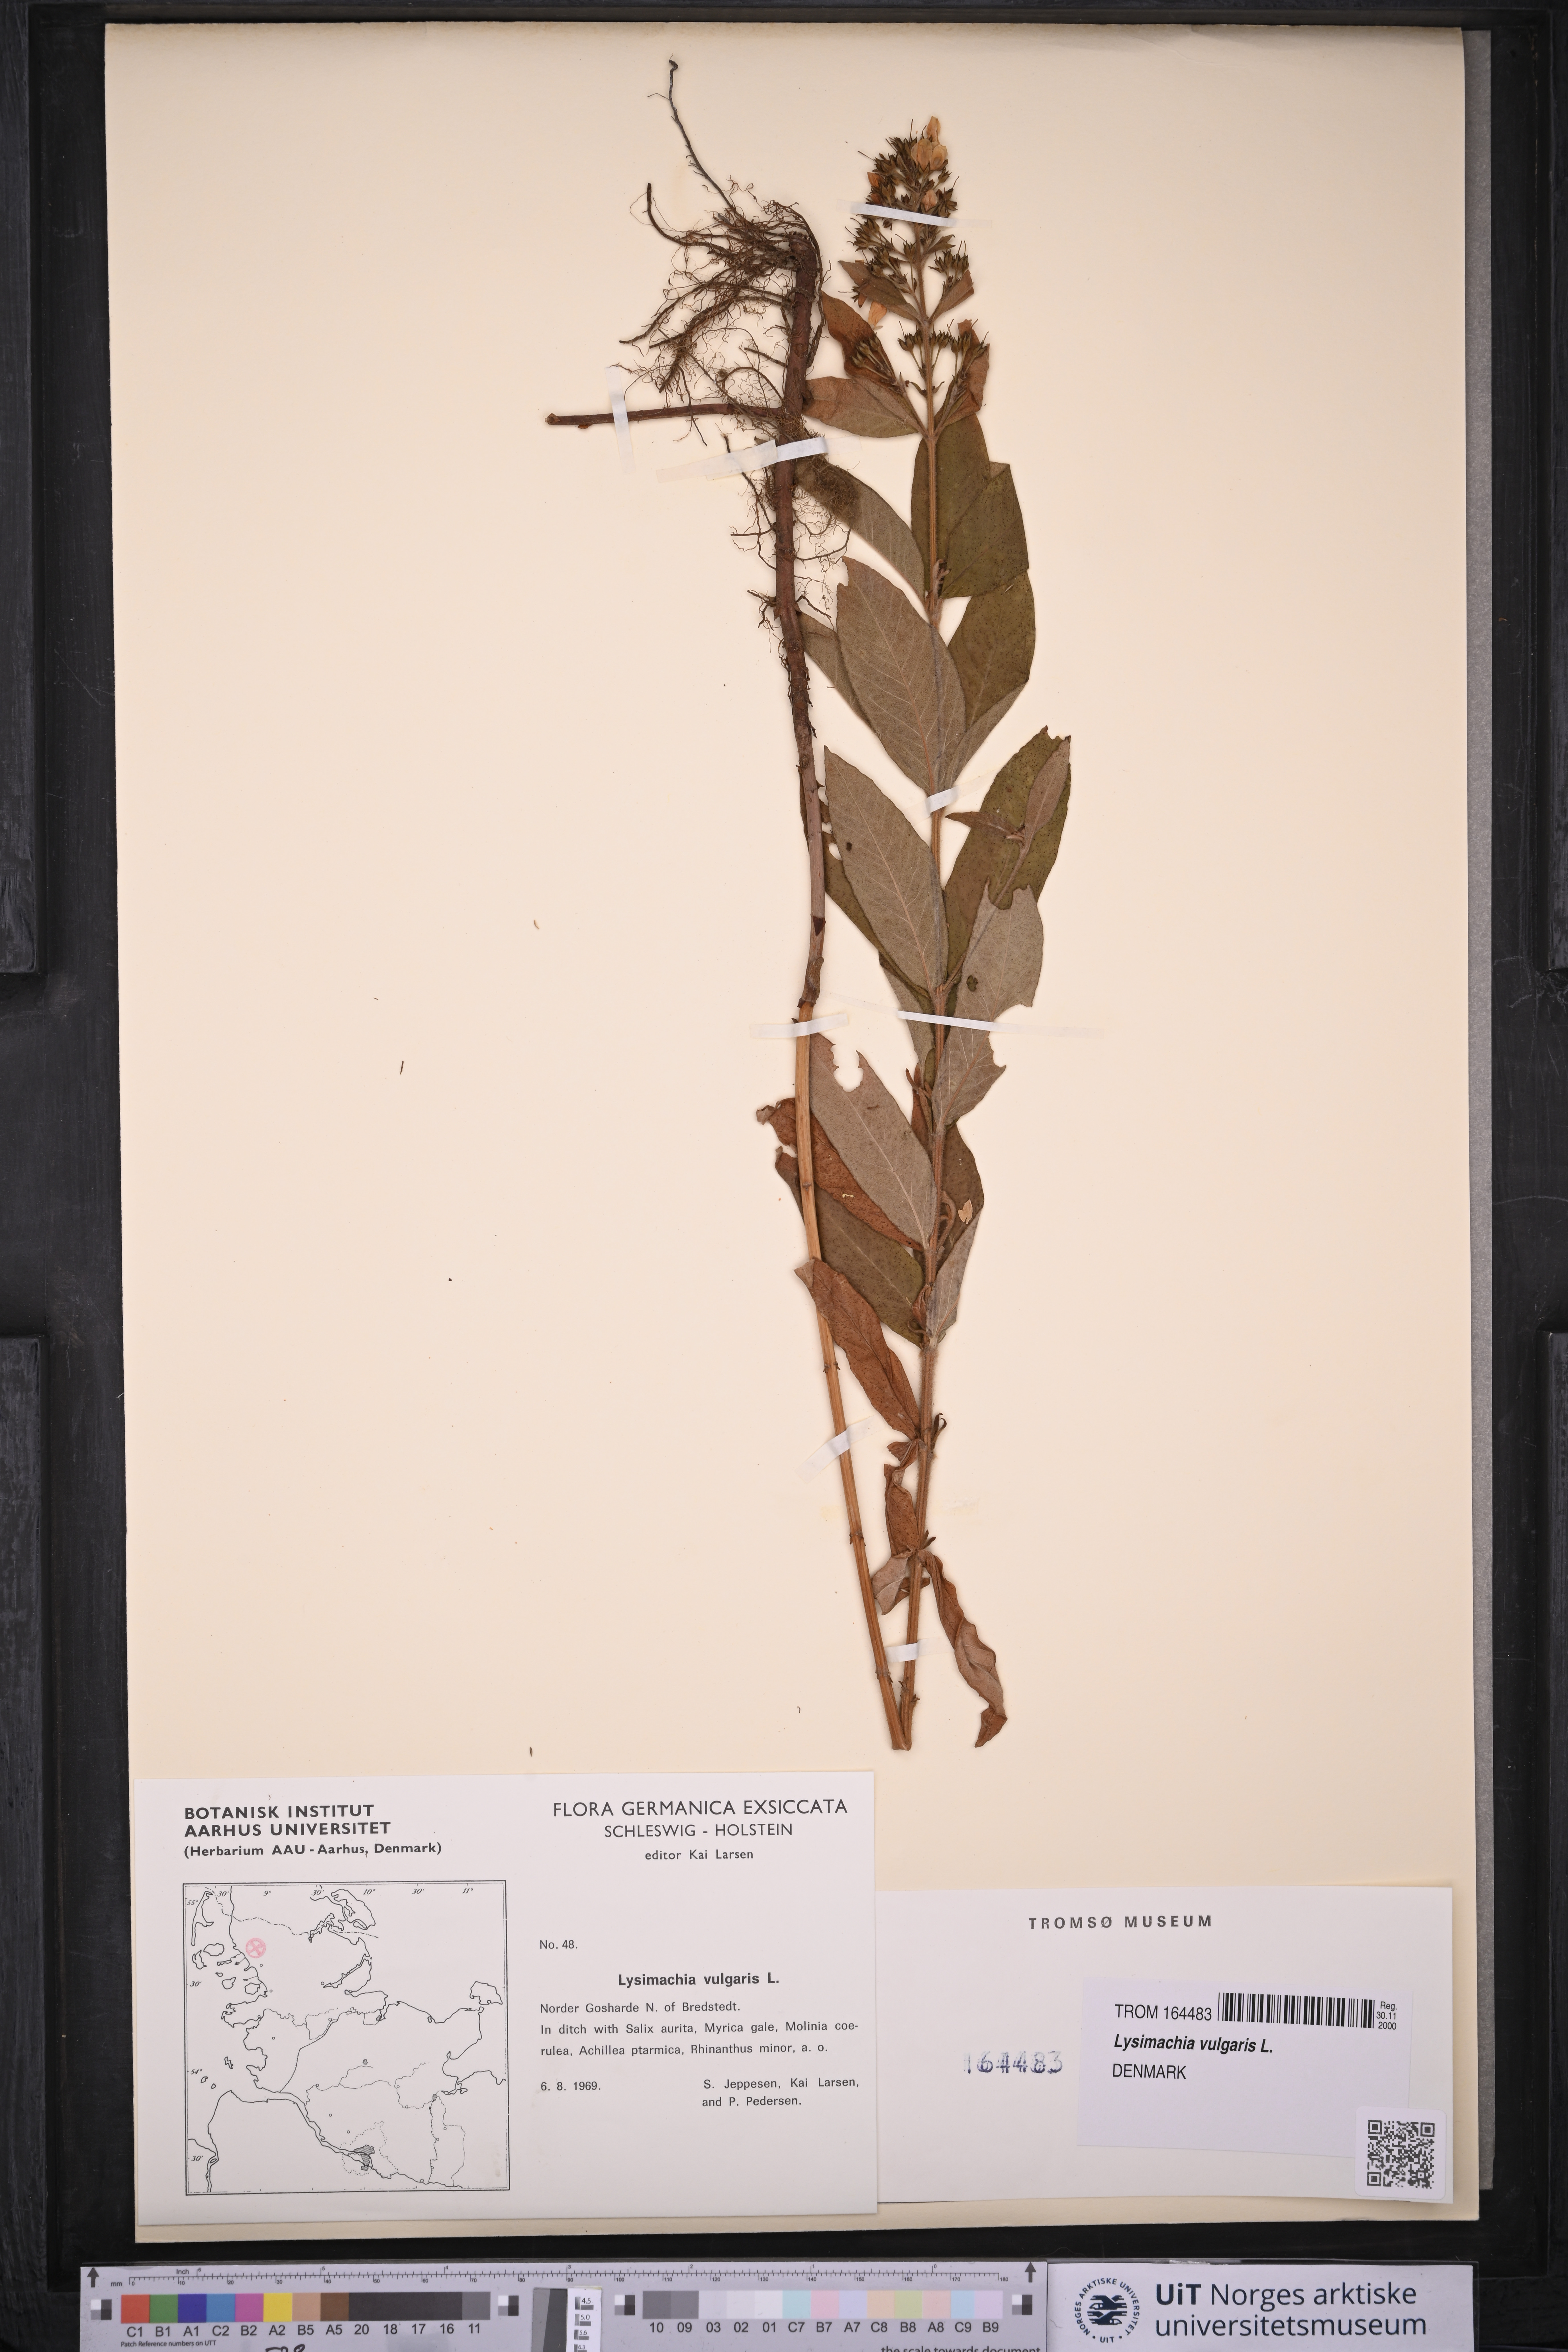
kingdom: Plantae
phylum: Tracheophyta
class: Magnoliopsida
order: Ericales
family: Primulaceae
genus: Lysimachia
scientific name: Lysimachia vulgaris
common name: Yellow loosestrife
